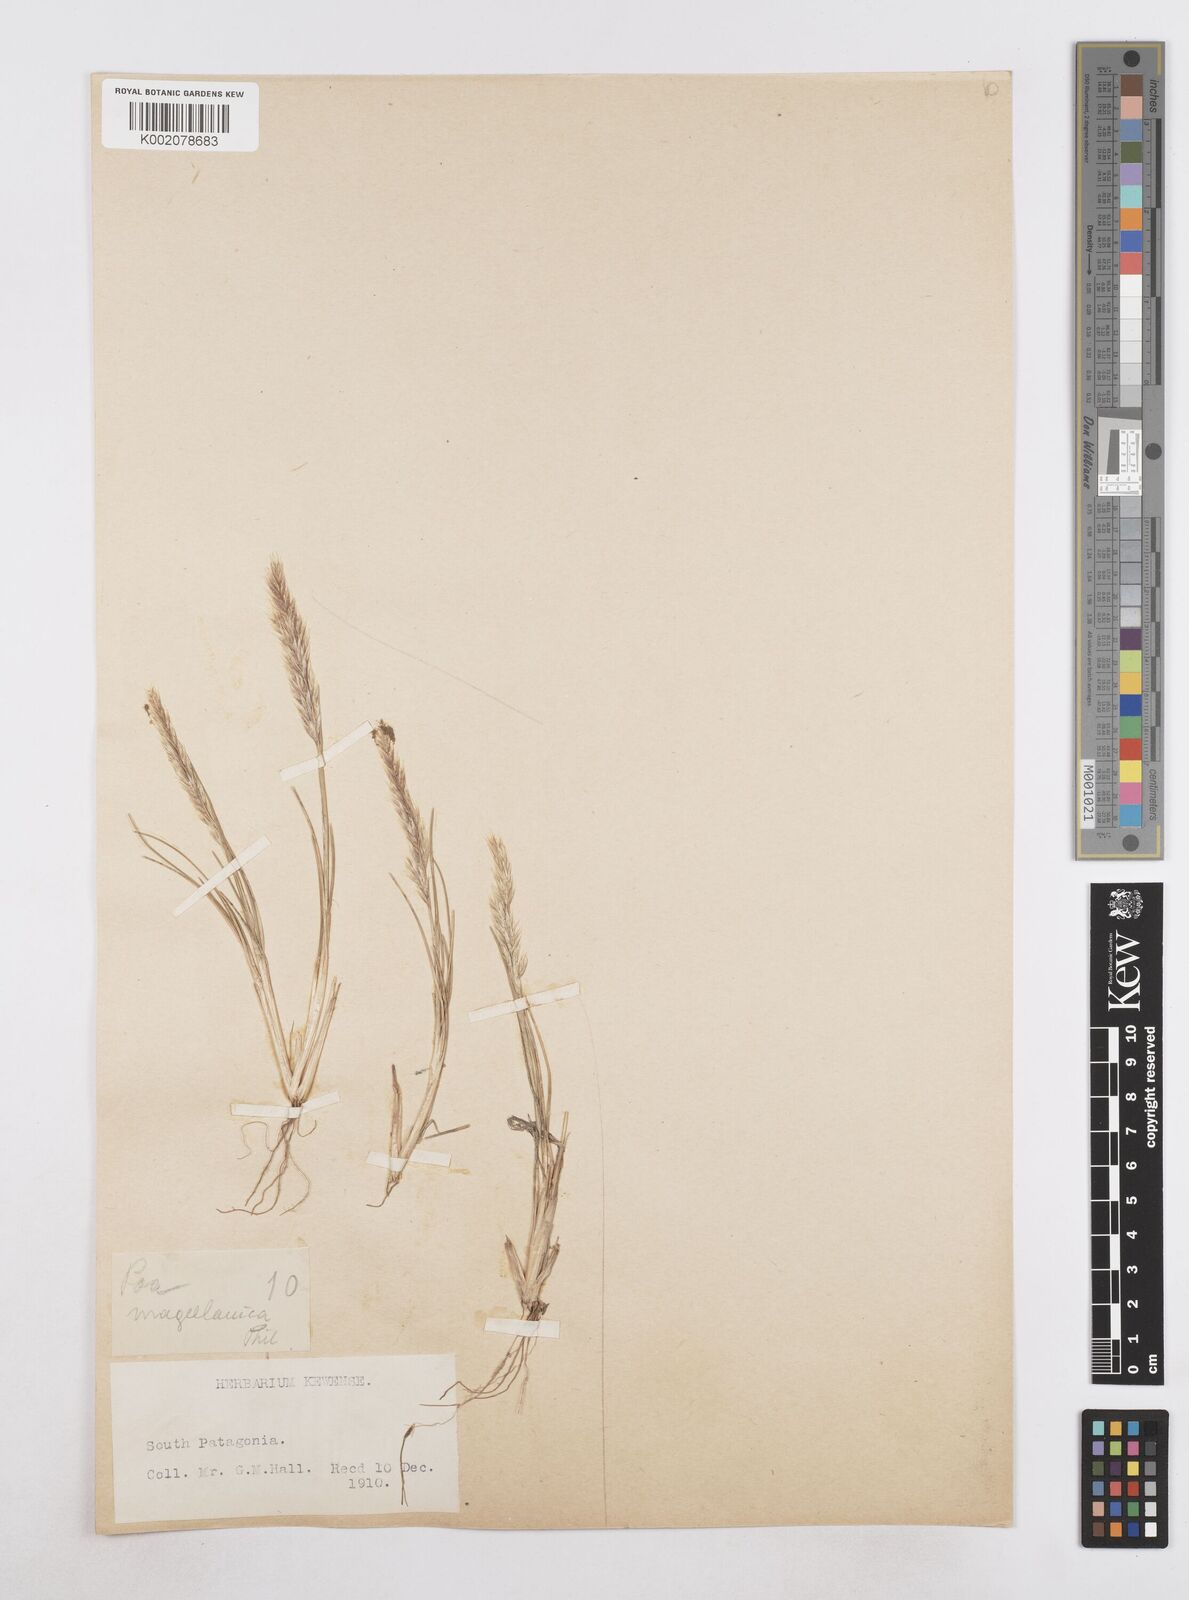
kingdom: Plantae
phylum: Tracheophyta
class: Liliopsida
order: Poales
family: Poaceae
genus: Arctopoa
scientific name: Arctopoa tibetica
